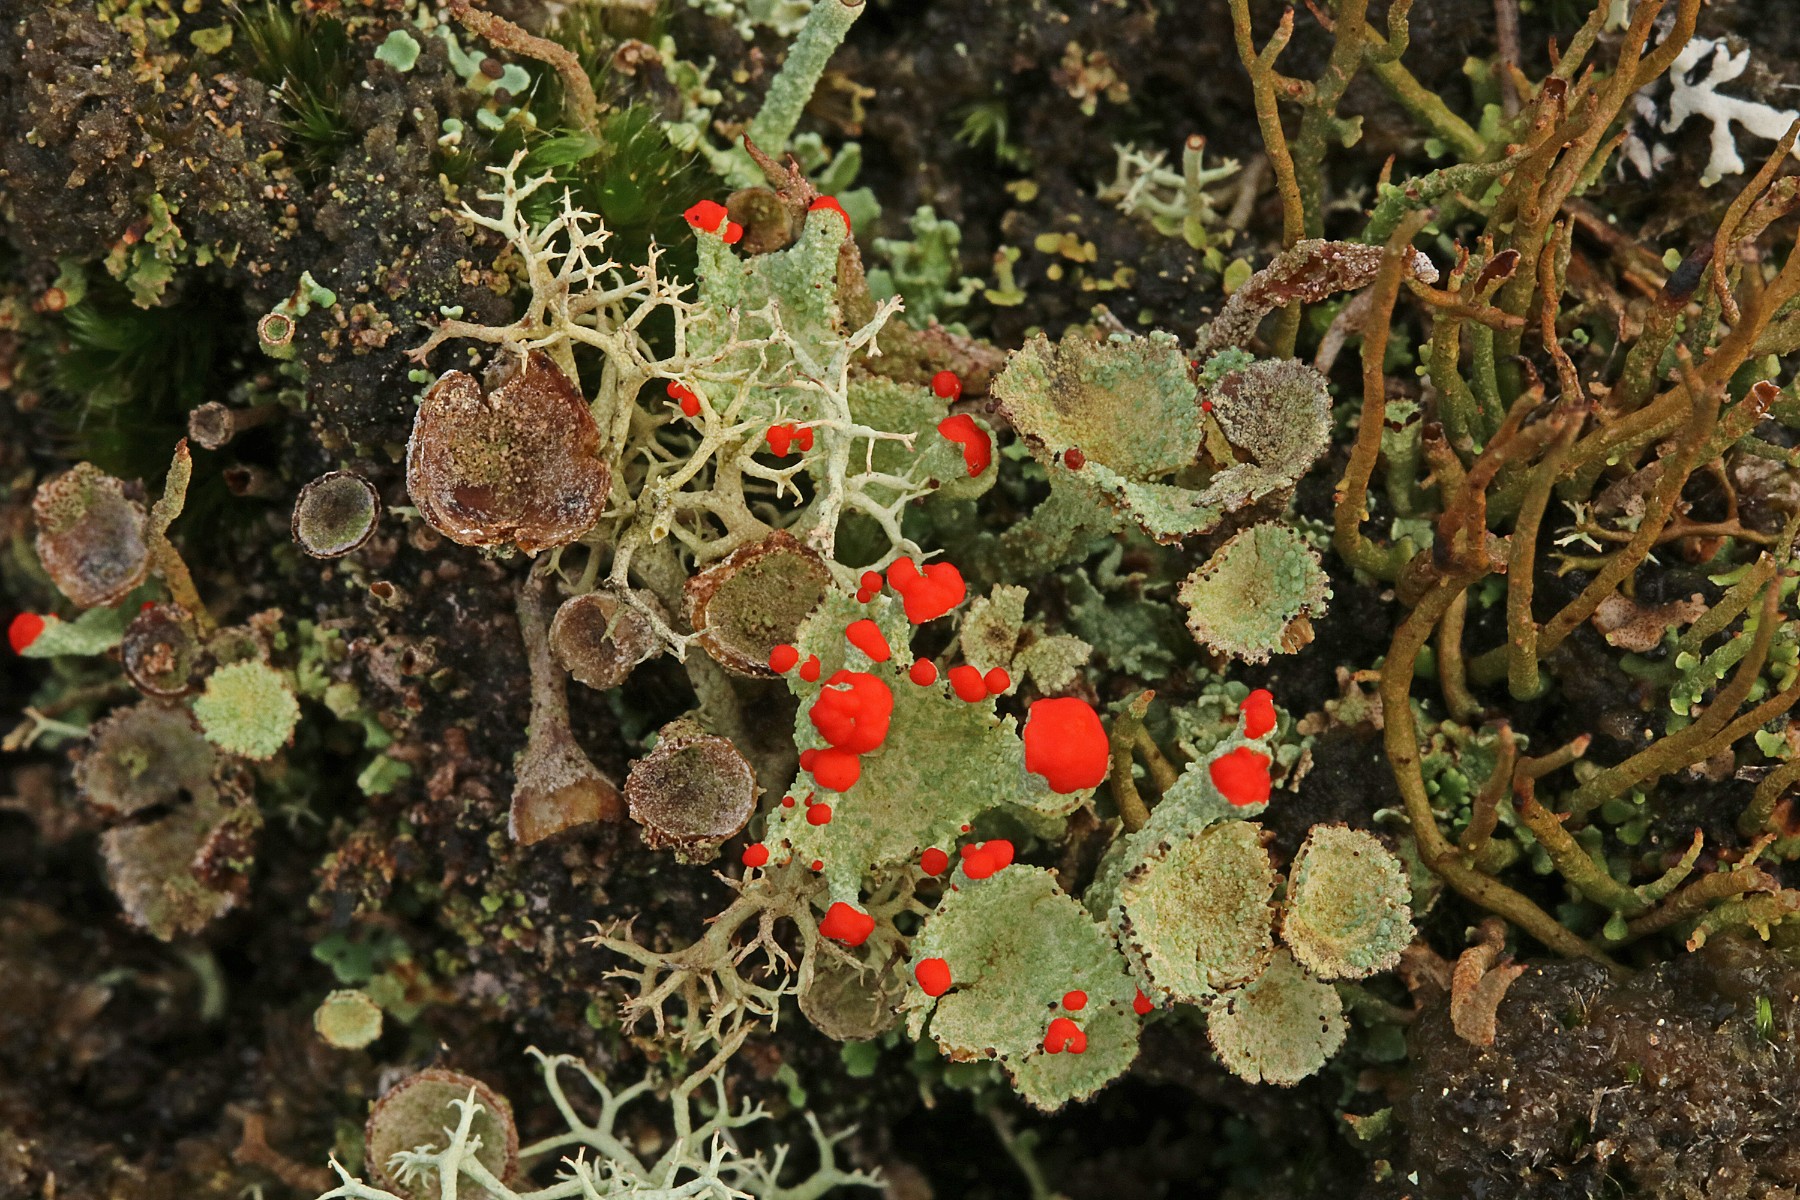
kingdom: Fungi
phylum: Ascomycota
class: Lecanoromycetes
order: Lecanorales
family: Cladoniaceae
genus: Cladonia
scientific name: Cladonia diversa
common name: rød bægerlav
